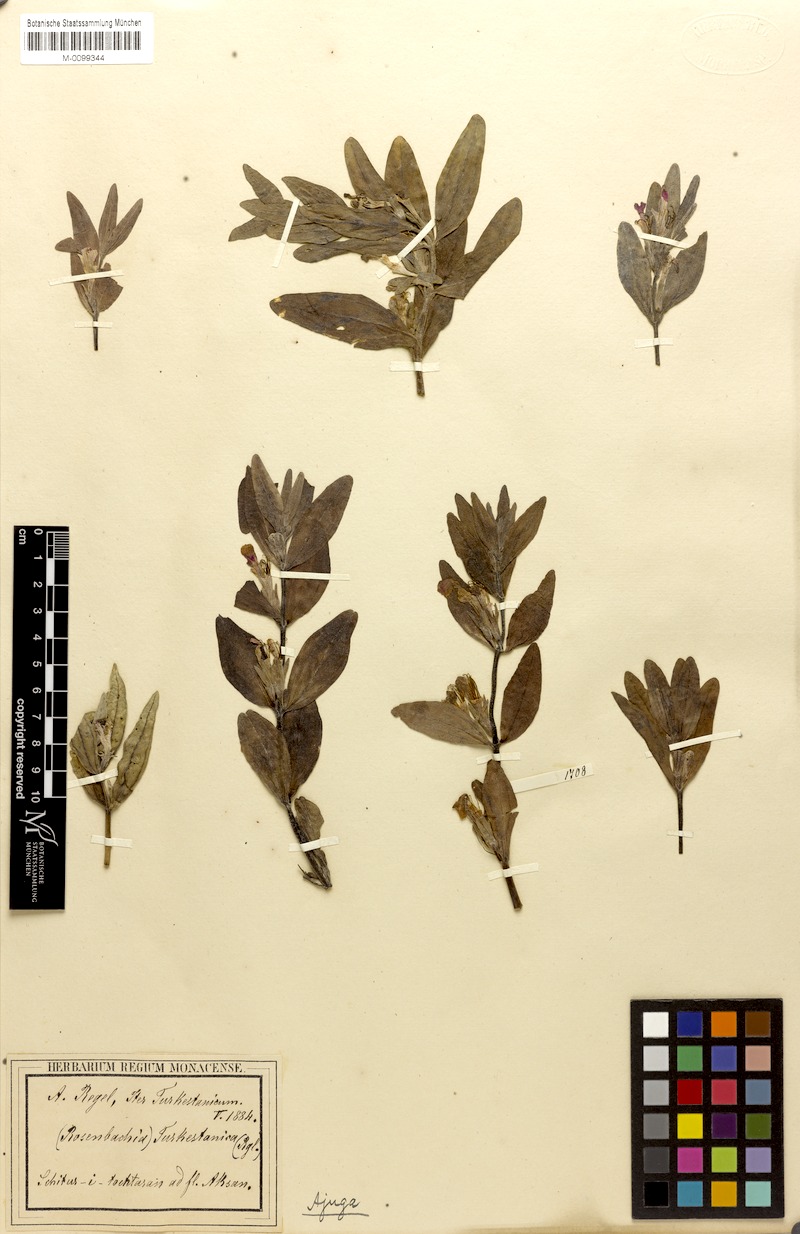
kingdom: Plantae
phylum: Tracheophyta
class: Magnoliopsida
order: Lamiales
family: Lamiaceae
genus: Ajuga
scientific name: Ajuga turkestanica
